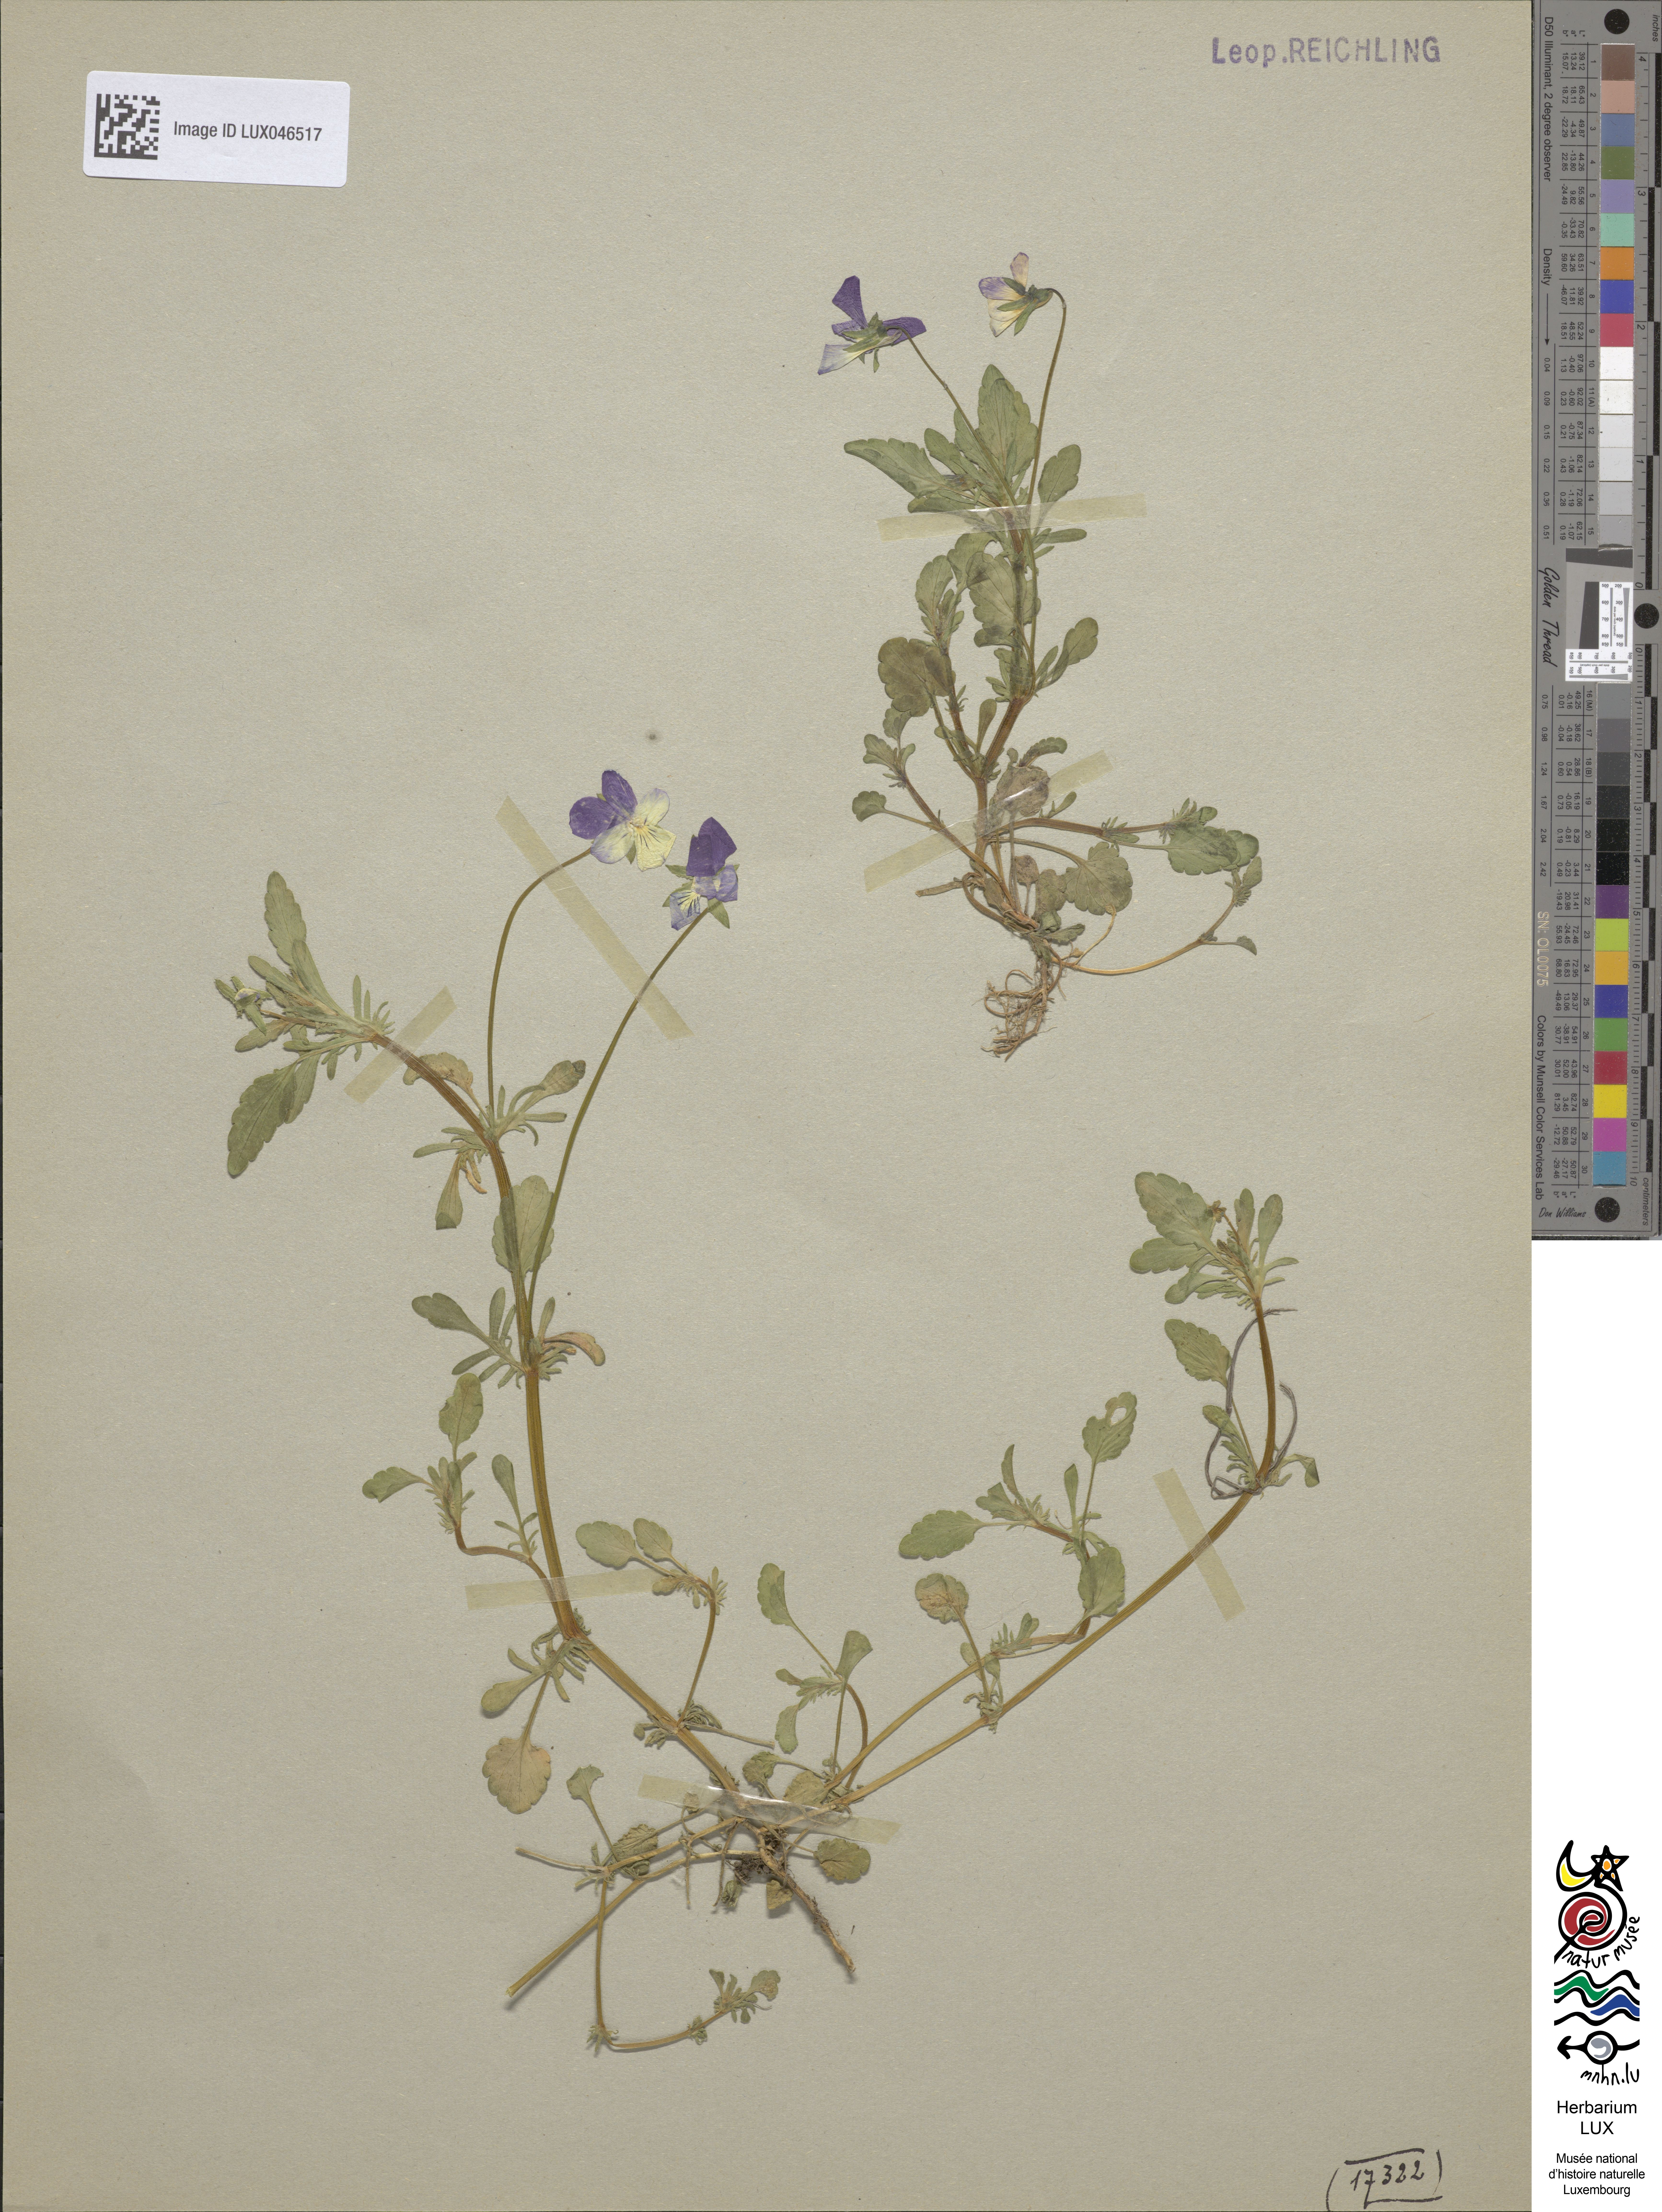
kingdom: Plantae
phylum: Tracheophyta
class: Magnoliopsida
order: Malpighiales
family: Violaceae
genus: Viola
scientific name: Viola tricolor
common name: Pansy
